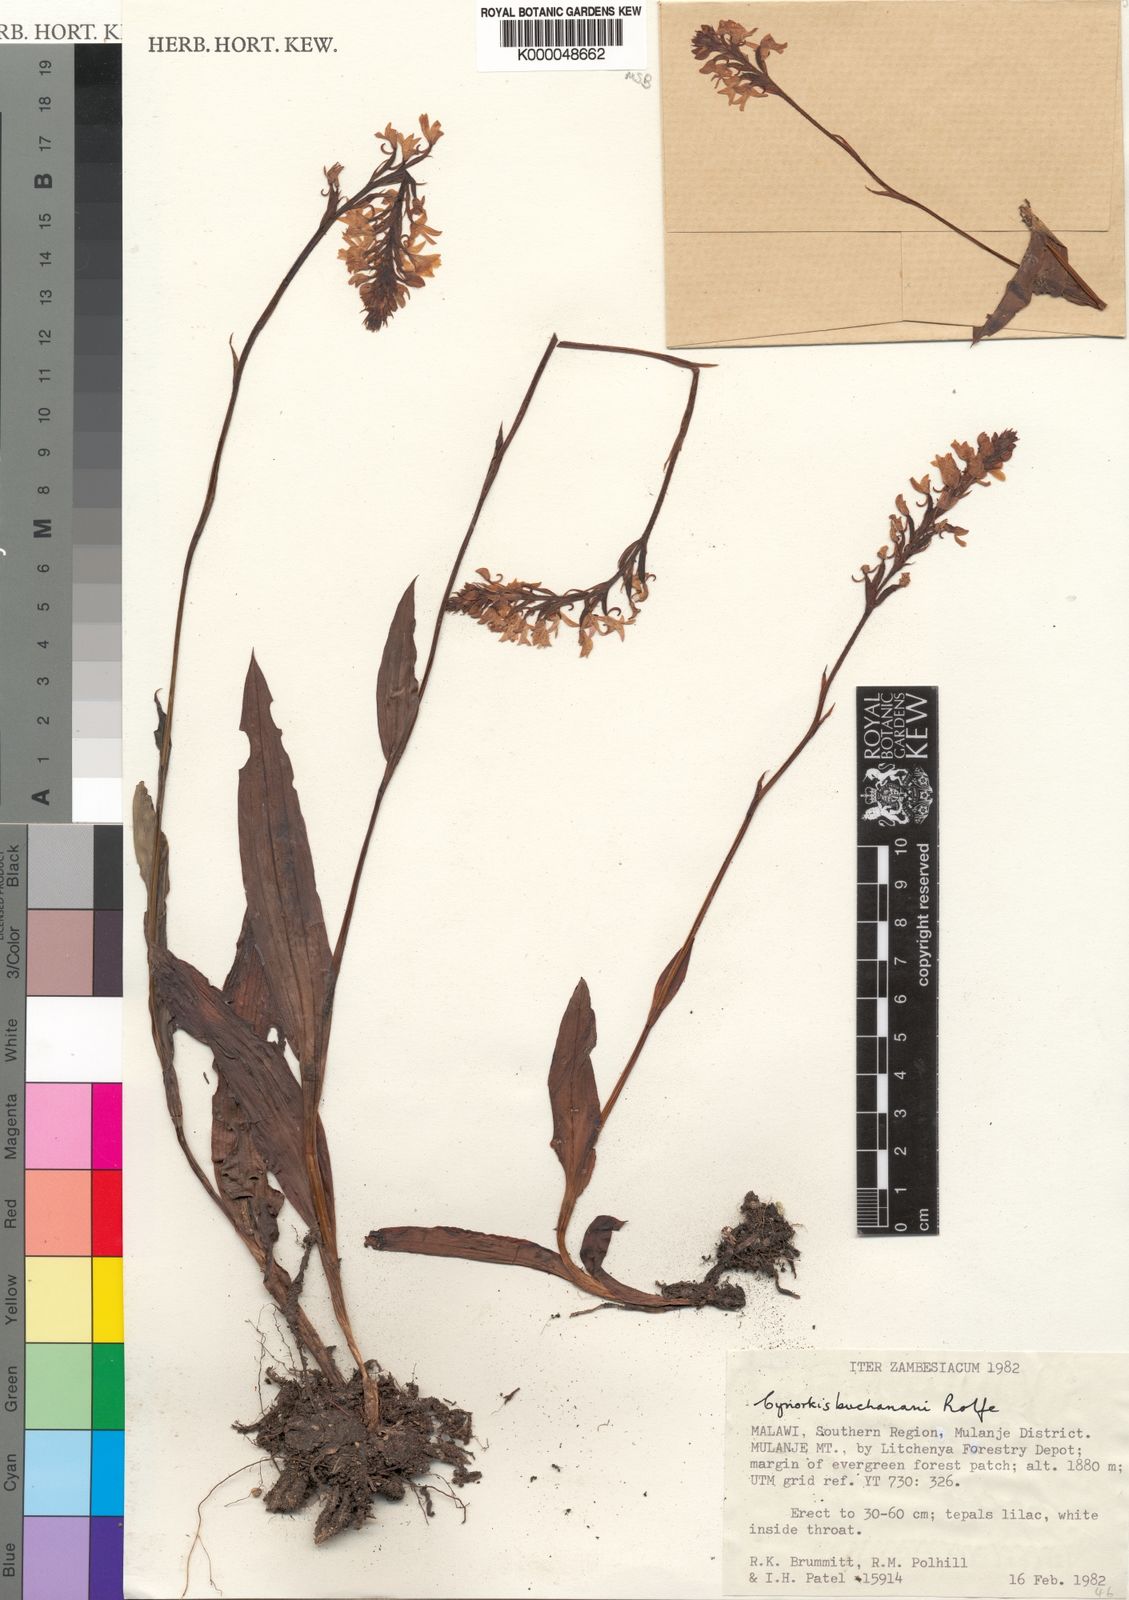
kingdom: Plantae
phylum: Tracheophyta
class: Liliopsida
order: Asparagales
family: Orchidaceae
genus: Cynorkis
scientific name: Cynorkis buchananii
